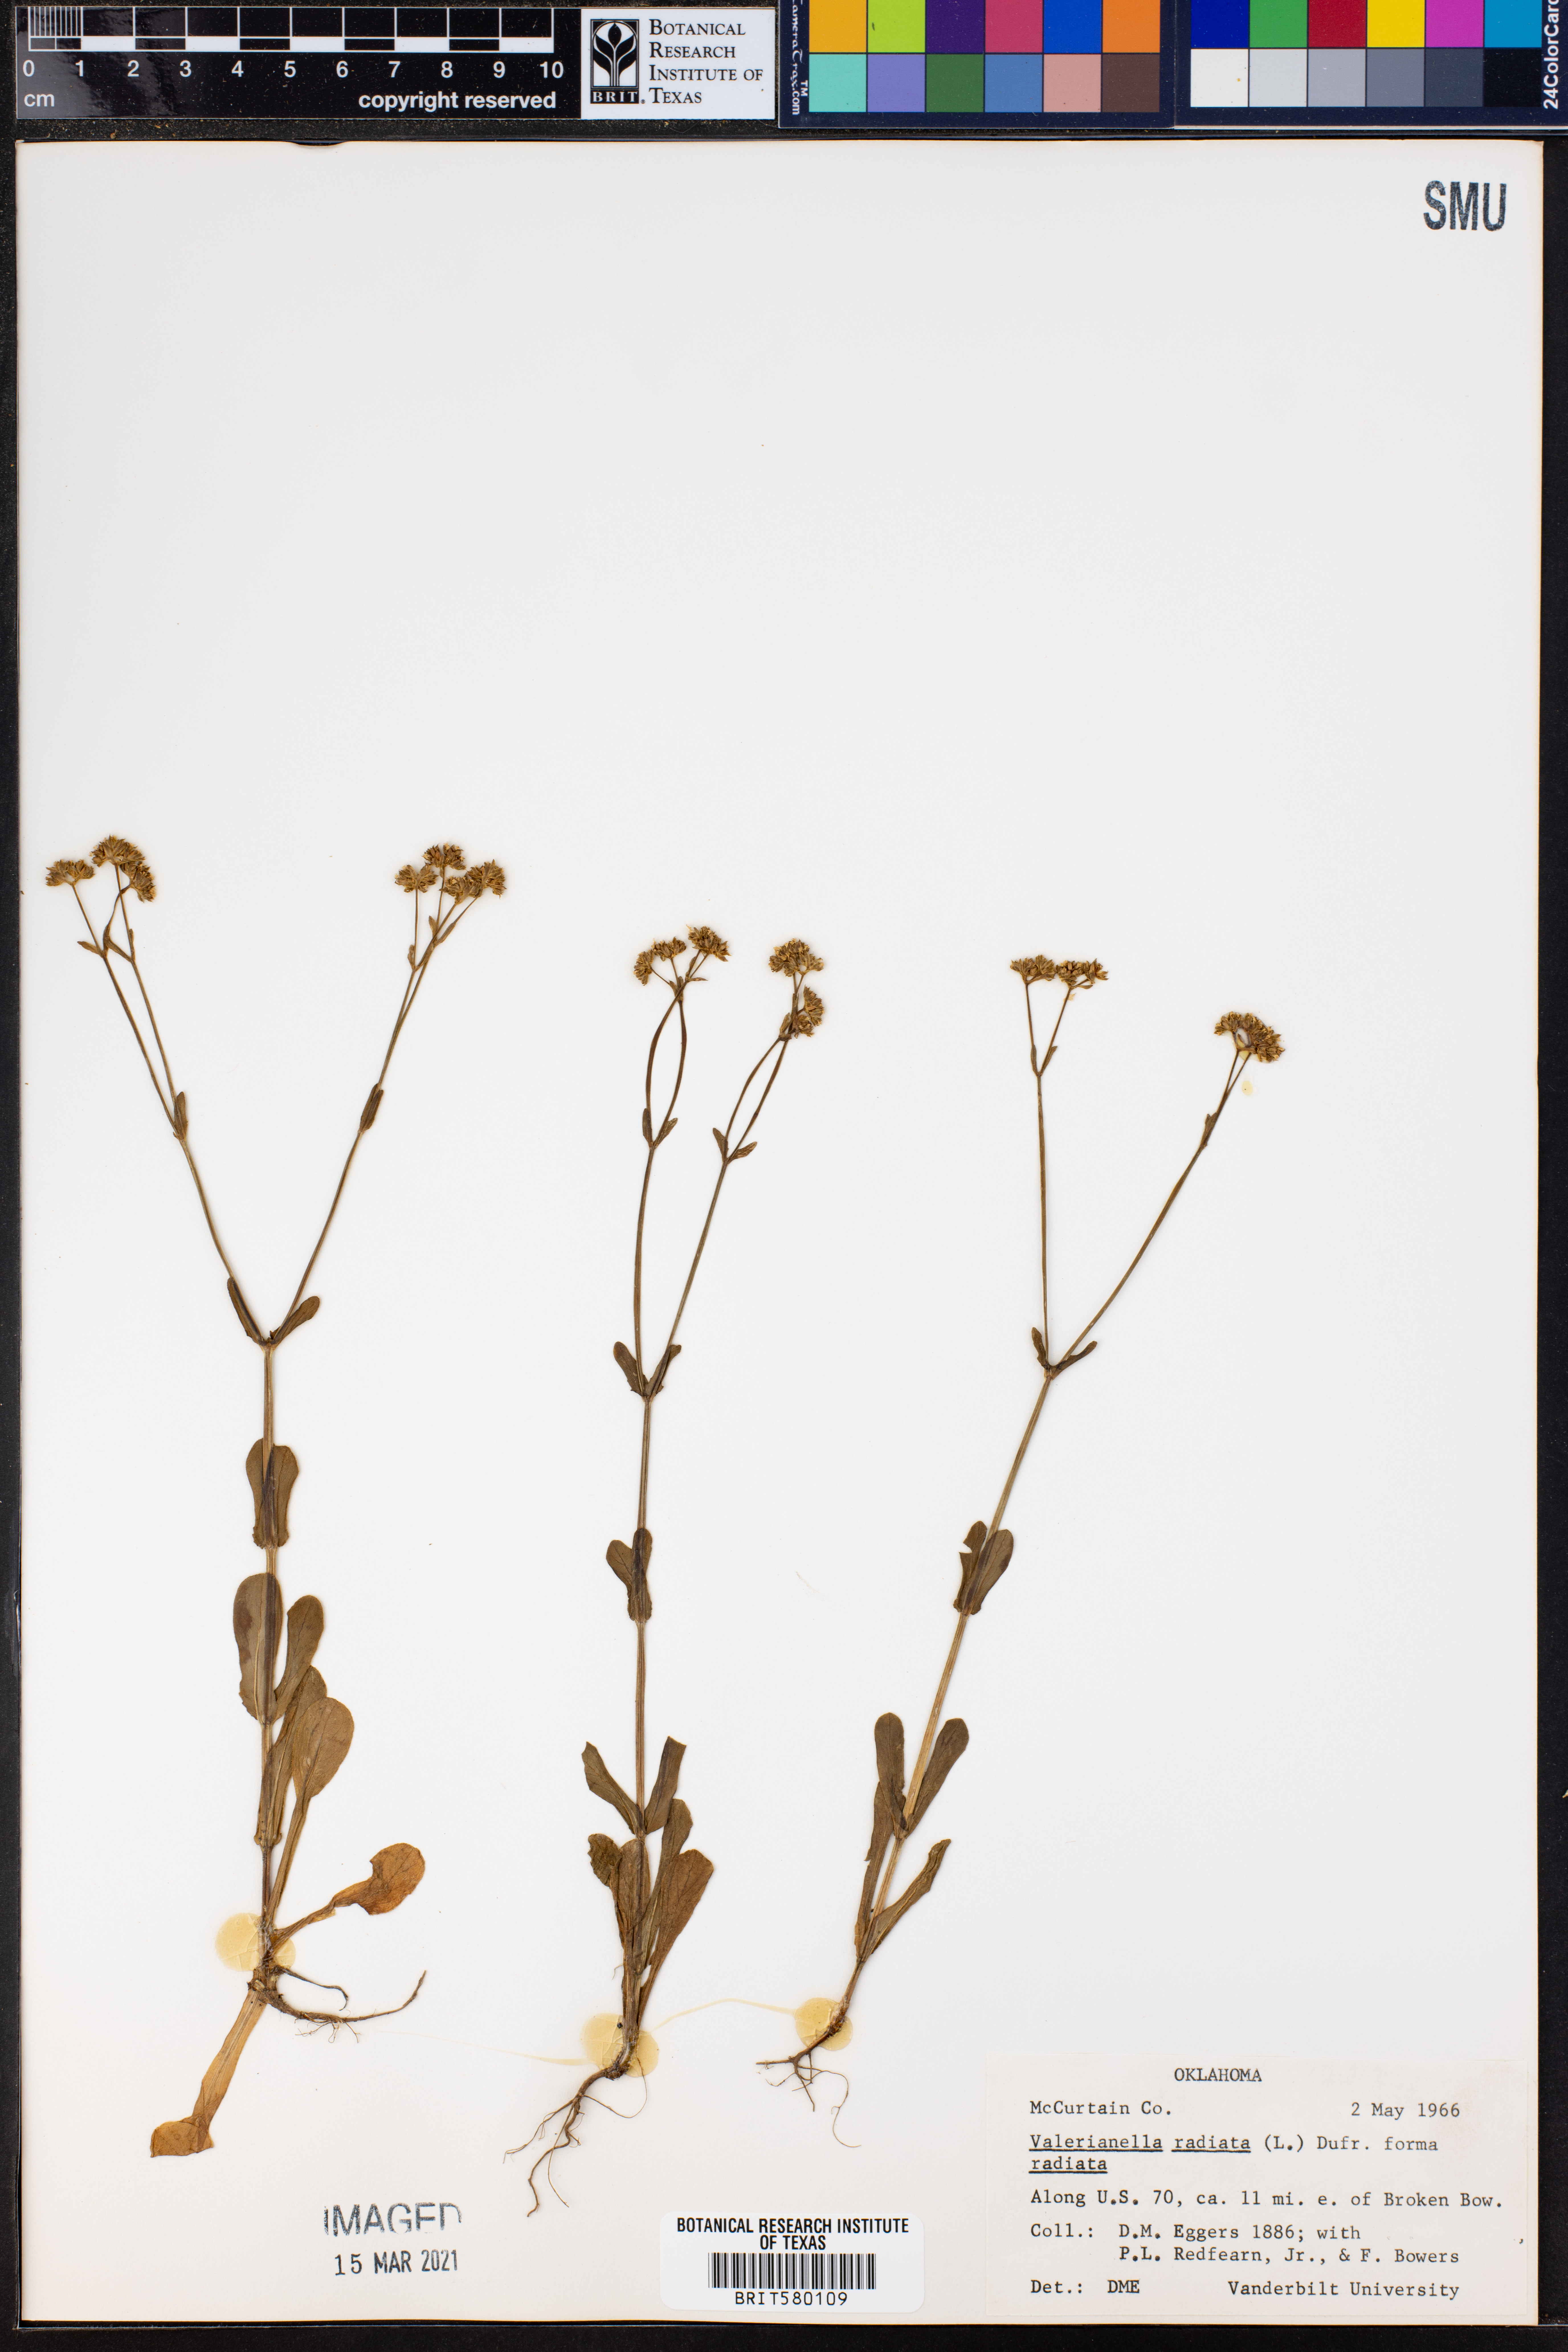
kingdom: Plantae
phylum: Tracheophyta
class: Magnoliopsida
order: Dipsacales
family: Caprifoliaceae
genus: Valerianella
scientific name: Valerianella radiata
